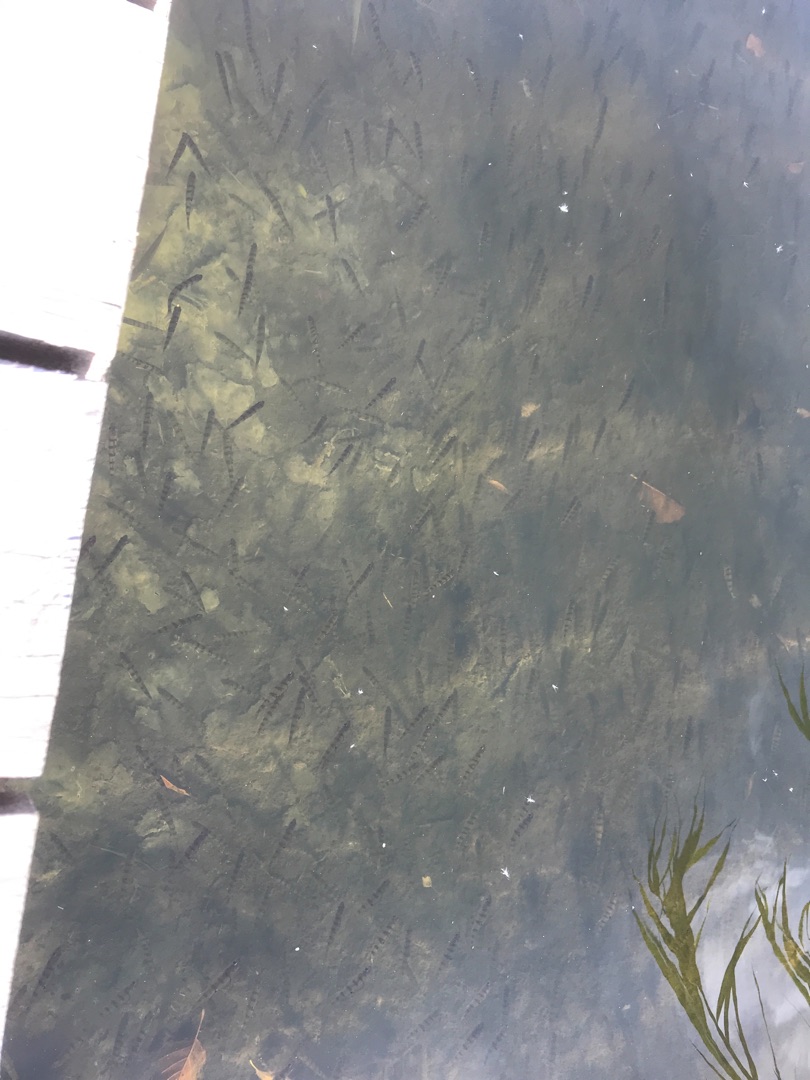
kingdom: Animalia
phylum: Chordata
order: Perciformes
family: Percidae
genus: Perca
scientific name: Perca fluviatilis
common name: Aborre
